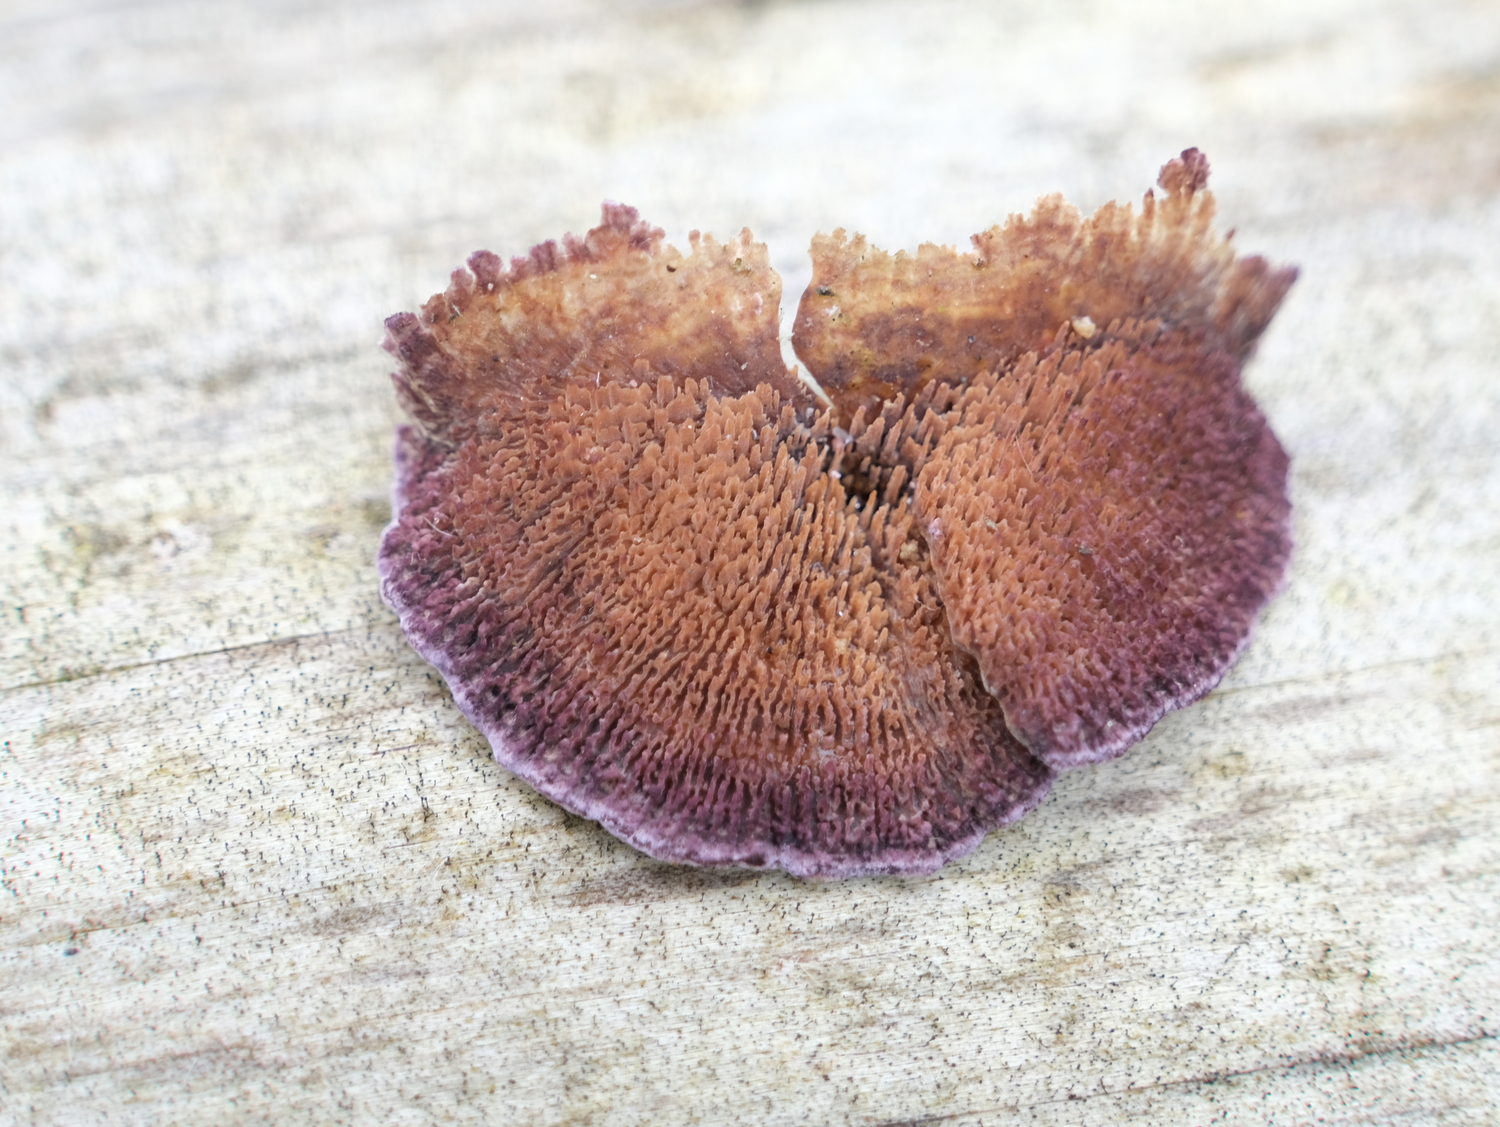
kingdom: Fungi
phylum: Basidiomycota
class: Agaricomycetes
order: Hymenochaetales
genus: Trichaptum
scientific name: Trichaptum fuscoviolaceum
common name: tandet violporesvamp
